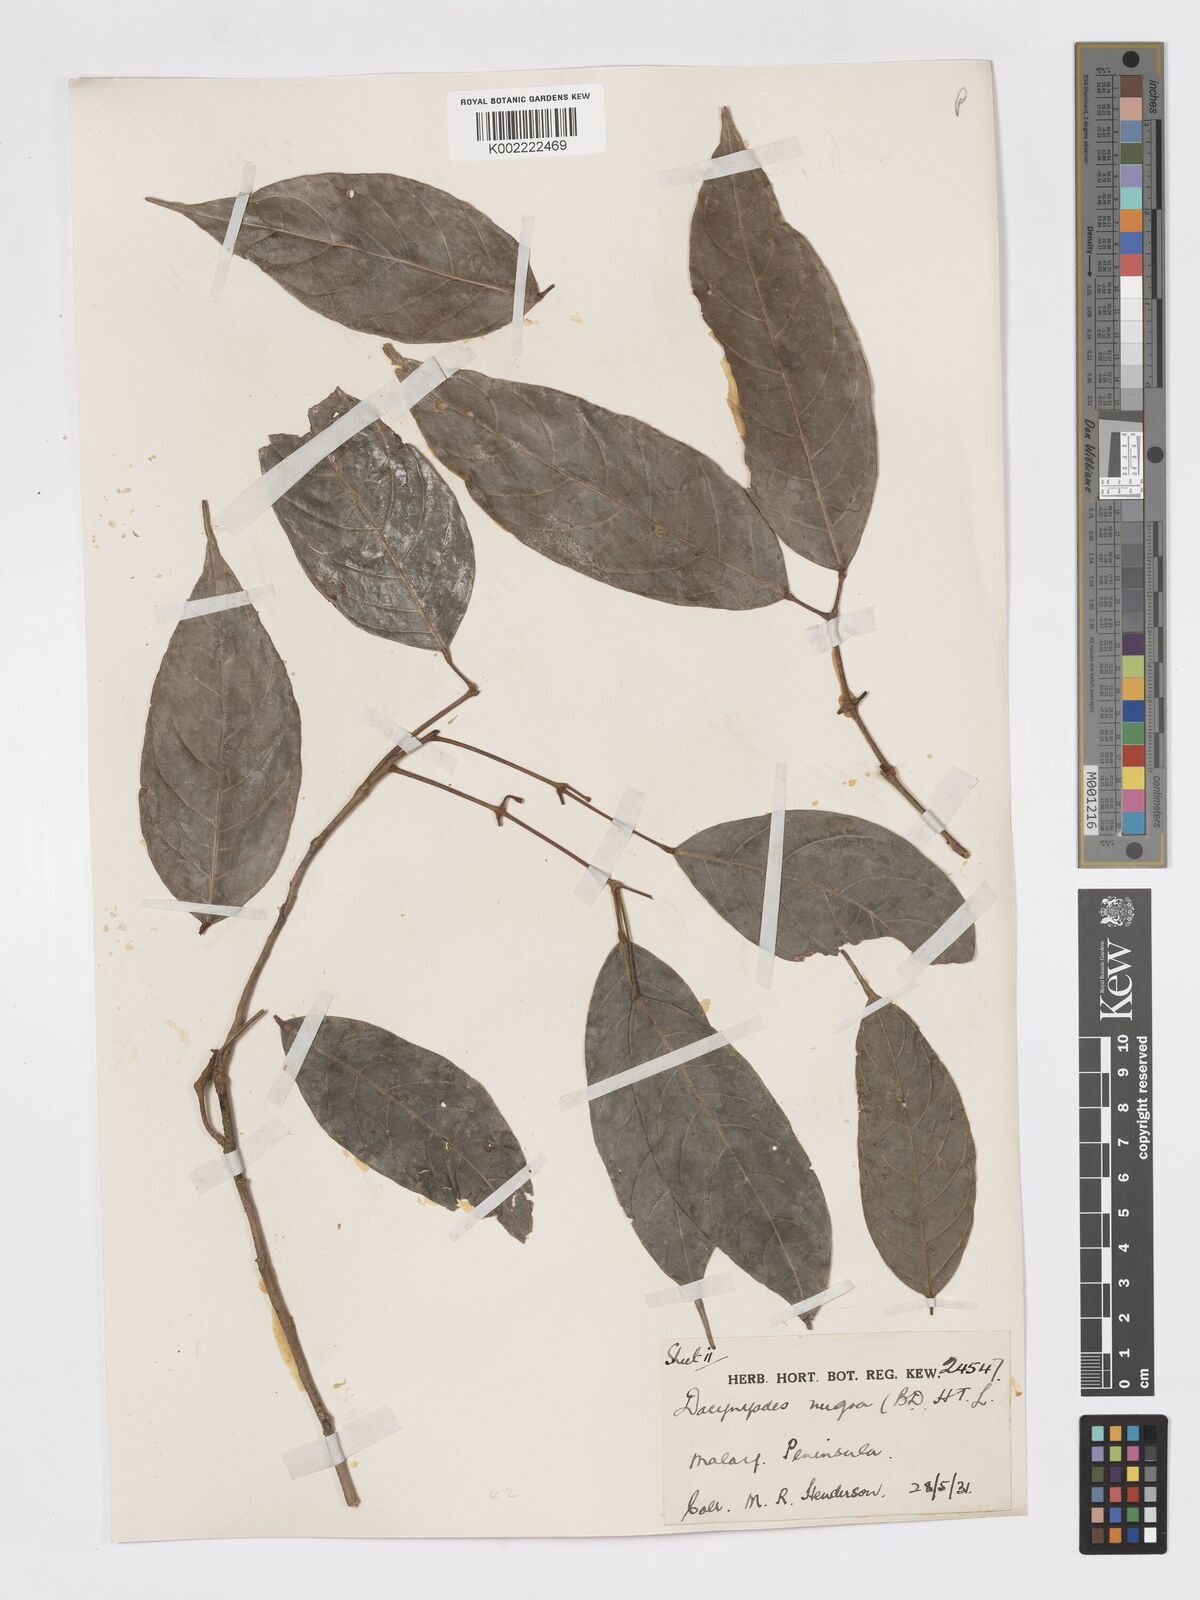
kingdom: Plantae
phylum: Tracheophyta
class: Magnoliopsida
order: Sapindales
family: Burseraceae
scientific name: Burseraceae
